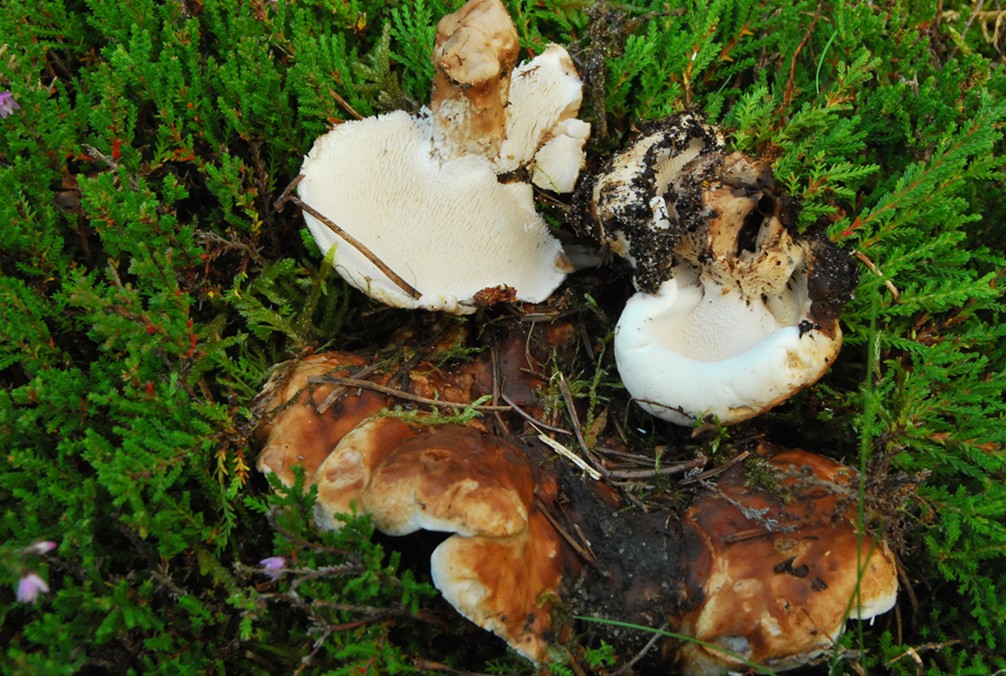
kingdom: Fungi
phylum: Basidiomycota
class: Agaricomycetes
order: Thelephorales
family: Thelephoraceae
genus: Phellodon
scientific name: Phellodon fuligineoalbus
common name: pjusket duftpigsvamp
